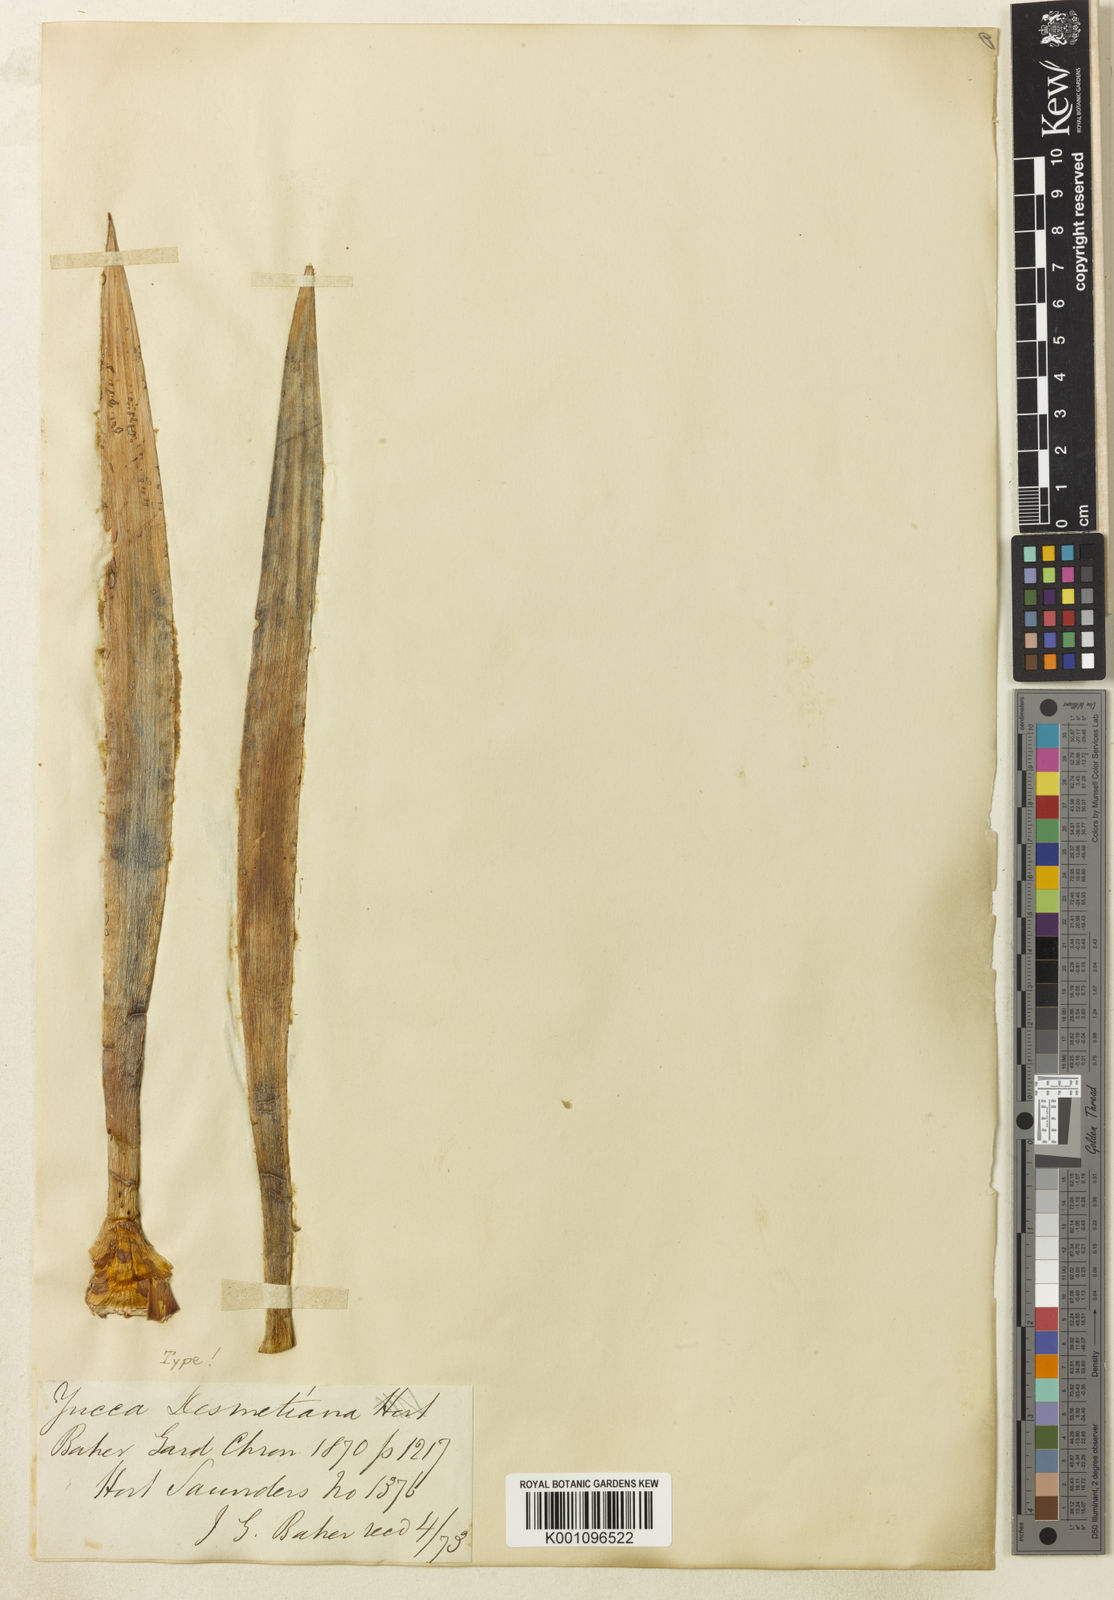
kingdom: Plantae
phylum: Tracheophyta
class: Liliopsida
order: Asparagales
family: Asparagaceae
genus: Yucca
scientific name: Yucca desmetiana
